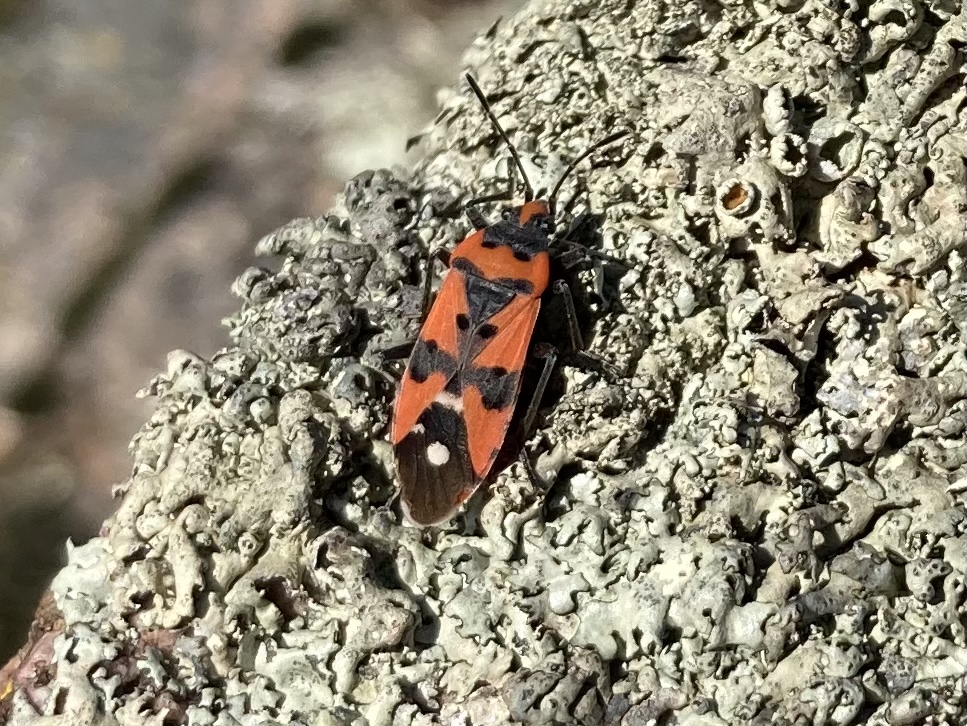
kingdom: Fungi
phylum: Ascomycota
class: Lecanoromycetes
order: Lecanorales
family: Parmeliaceae
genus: Xanthoparmelia
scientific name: Xanthoparmelia
